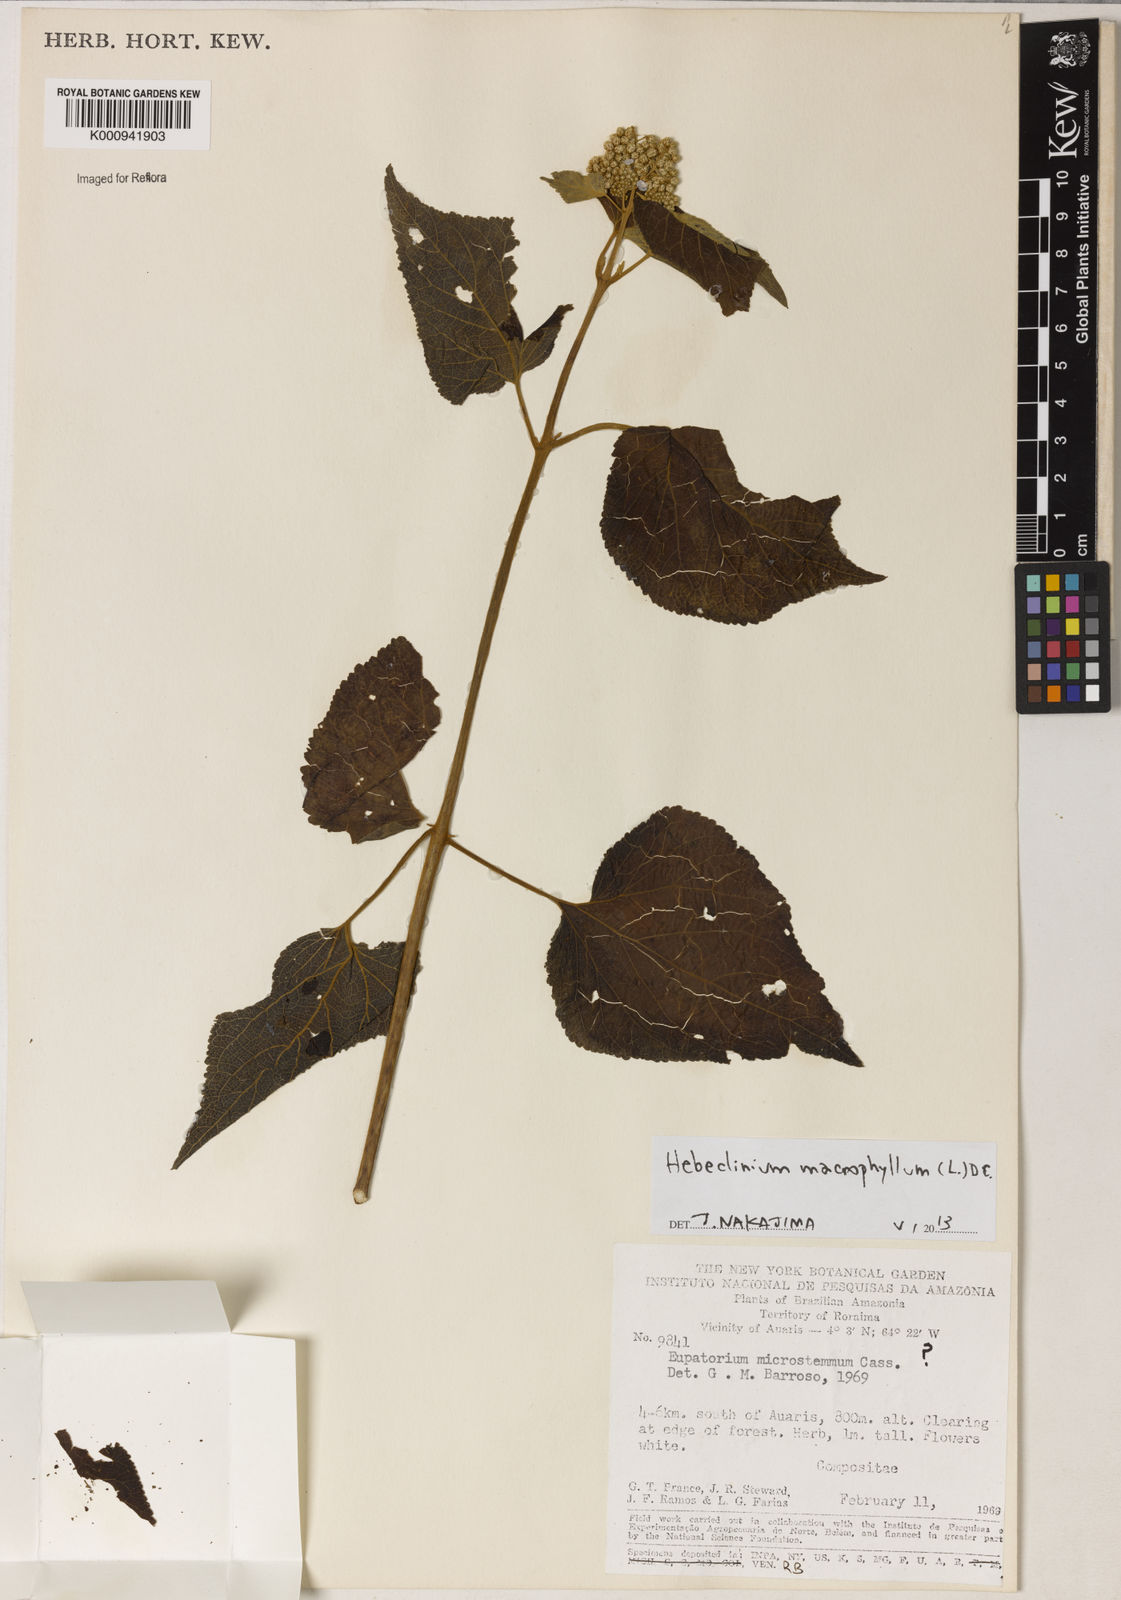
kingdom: Plantae
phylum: Tracheophyta
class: Magnoliopsida
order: Asterales
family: Asteraceae
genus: Hebeclinium
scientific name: Hebeclinium macrophyllum
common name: Largeleaf thoroughwort
